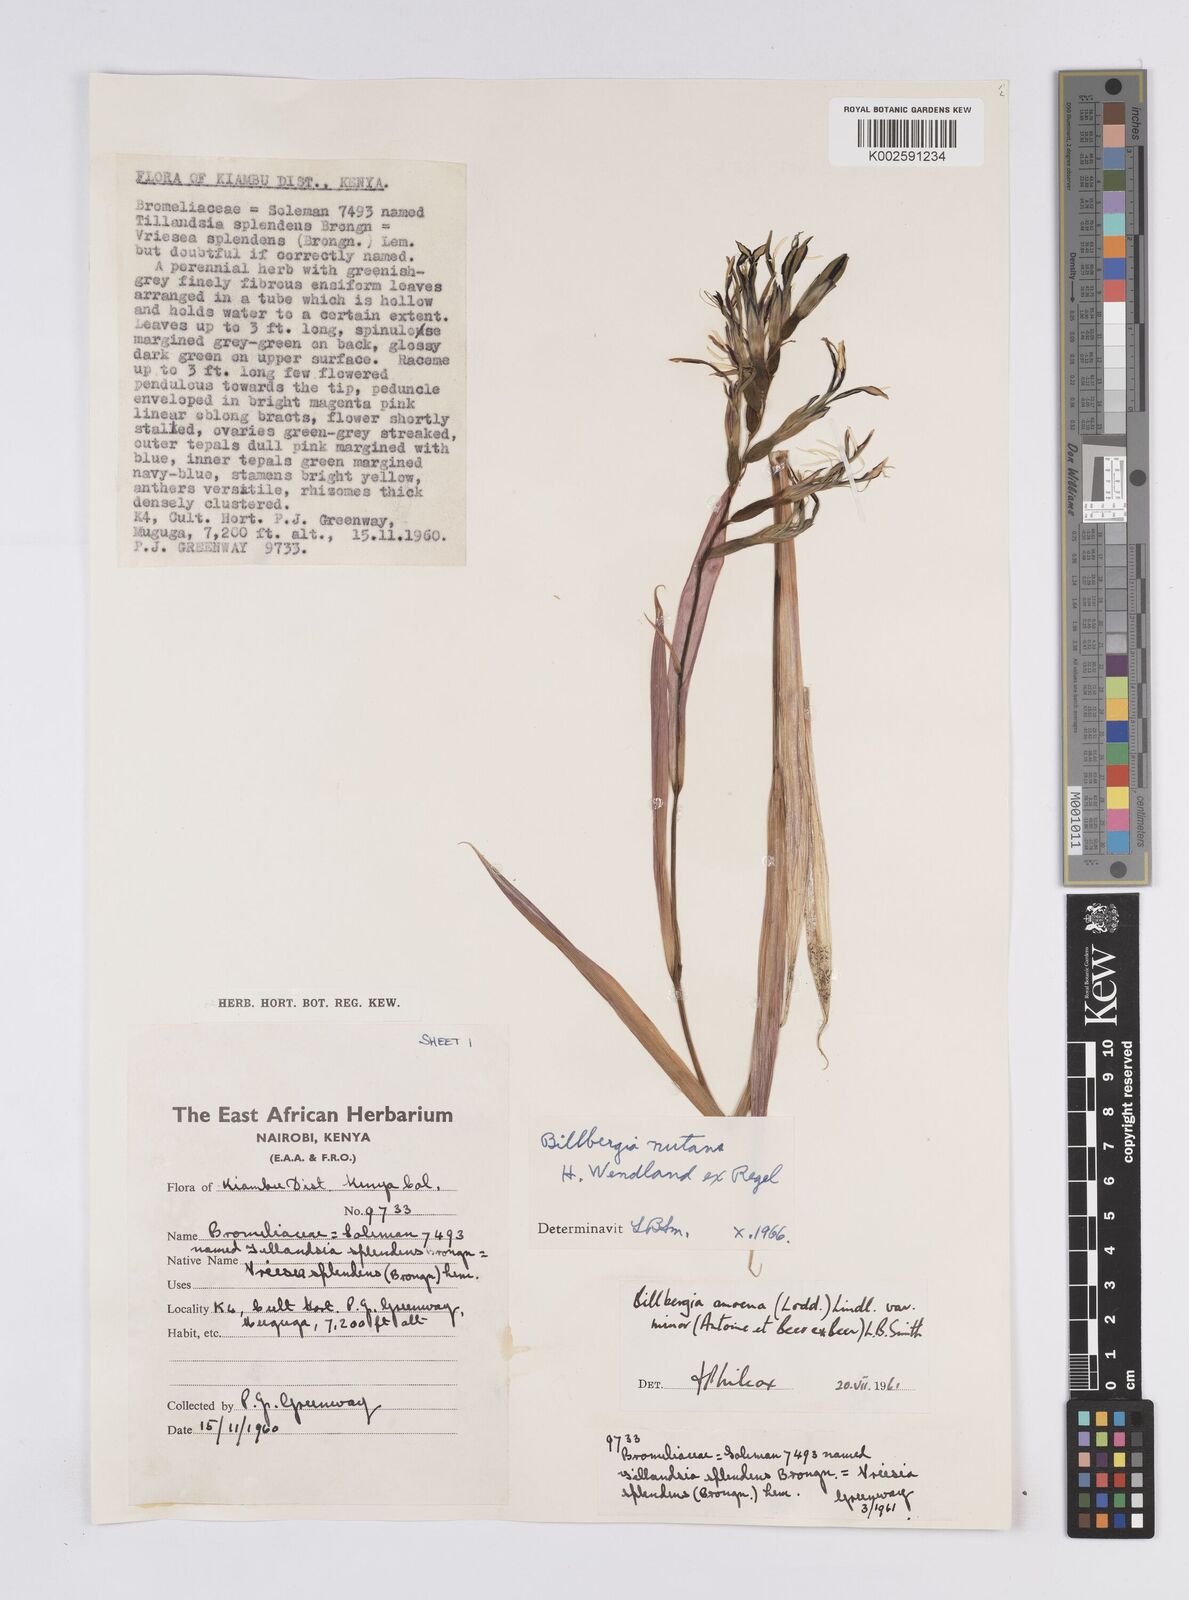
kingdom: Plantae
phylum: Tracheophyta
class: Liliopsida
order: Poales
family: Bromeliaceae
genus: Billbergia
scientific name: Billbergia nutans
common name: Friendship-plant
